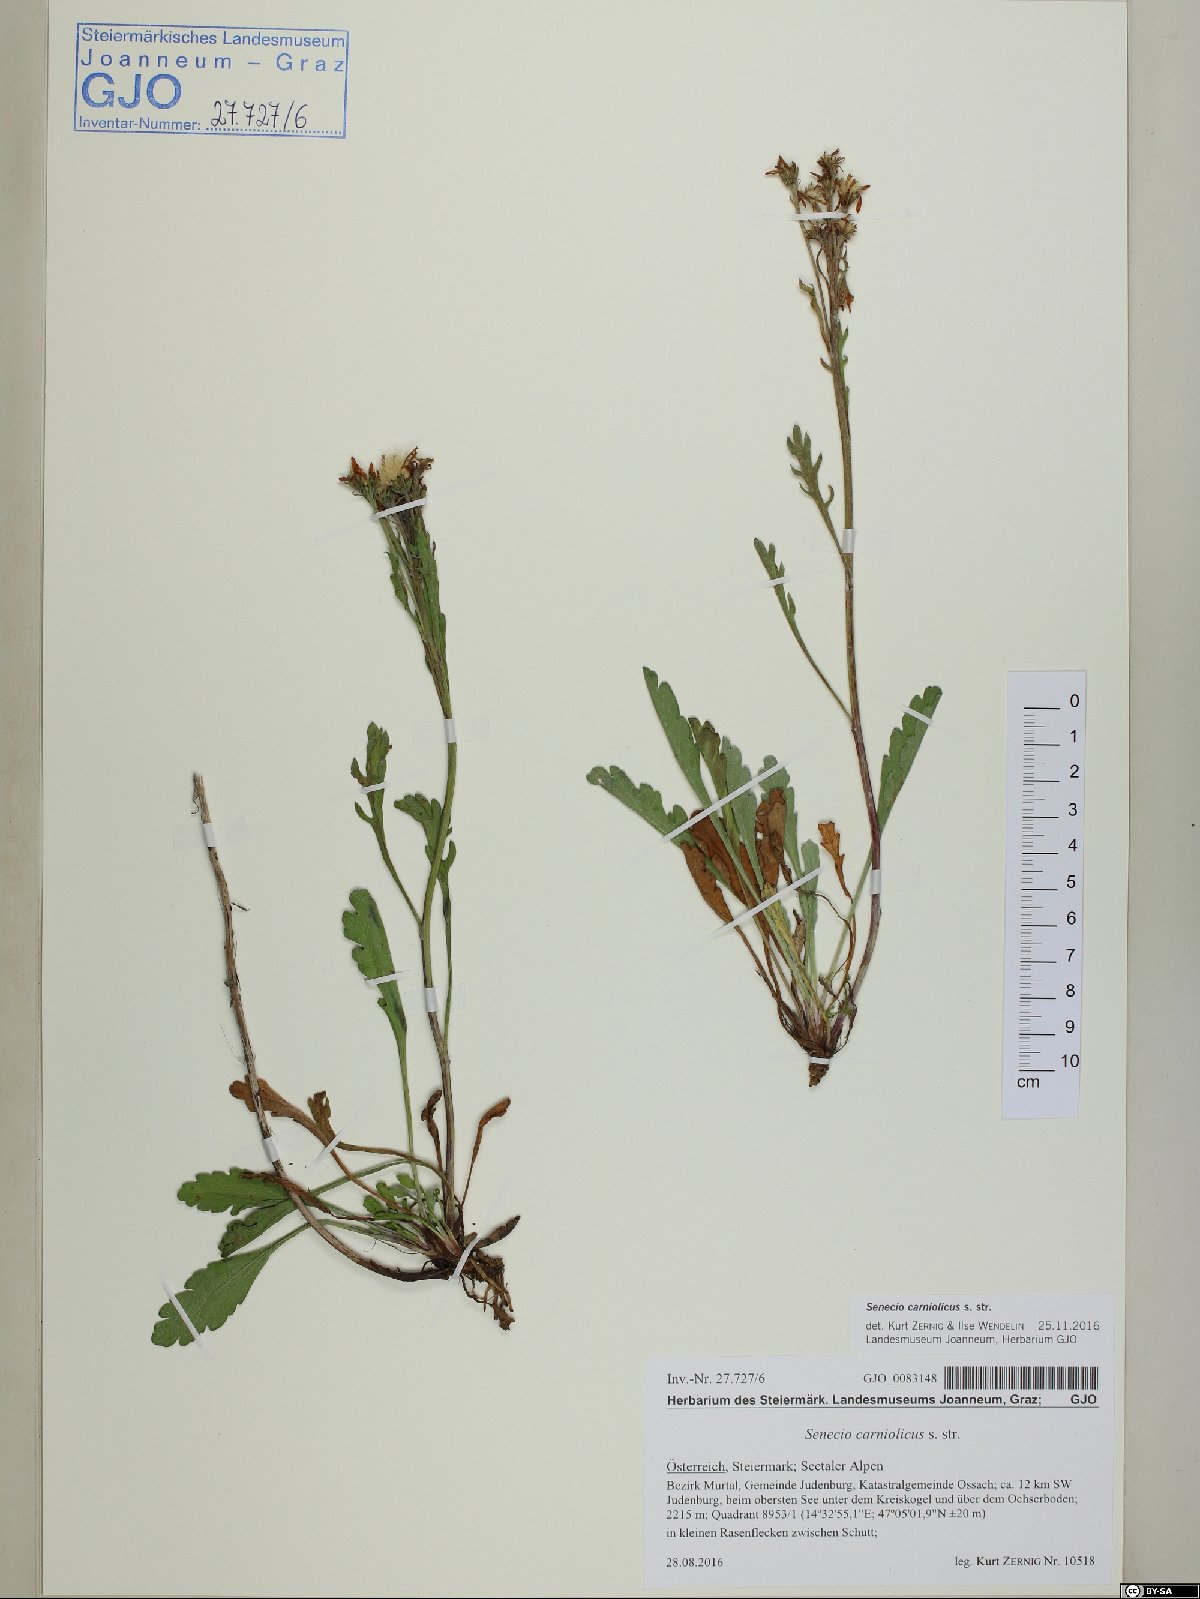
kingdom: Plantae
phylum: Tracheophyta
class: Magnoliopsida
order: Asterales
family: Asteraceae
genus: Jacobaea
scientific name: Jacobaea carniolica
